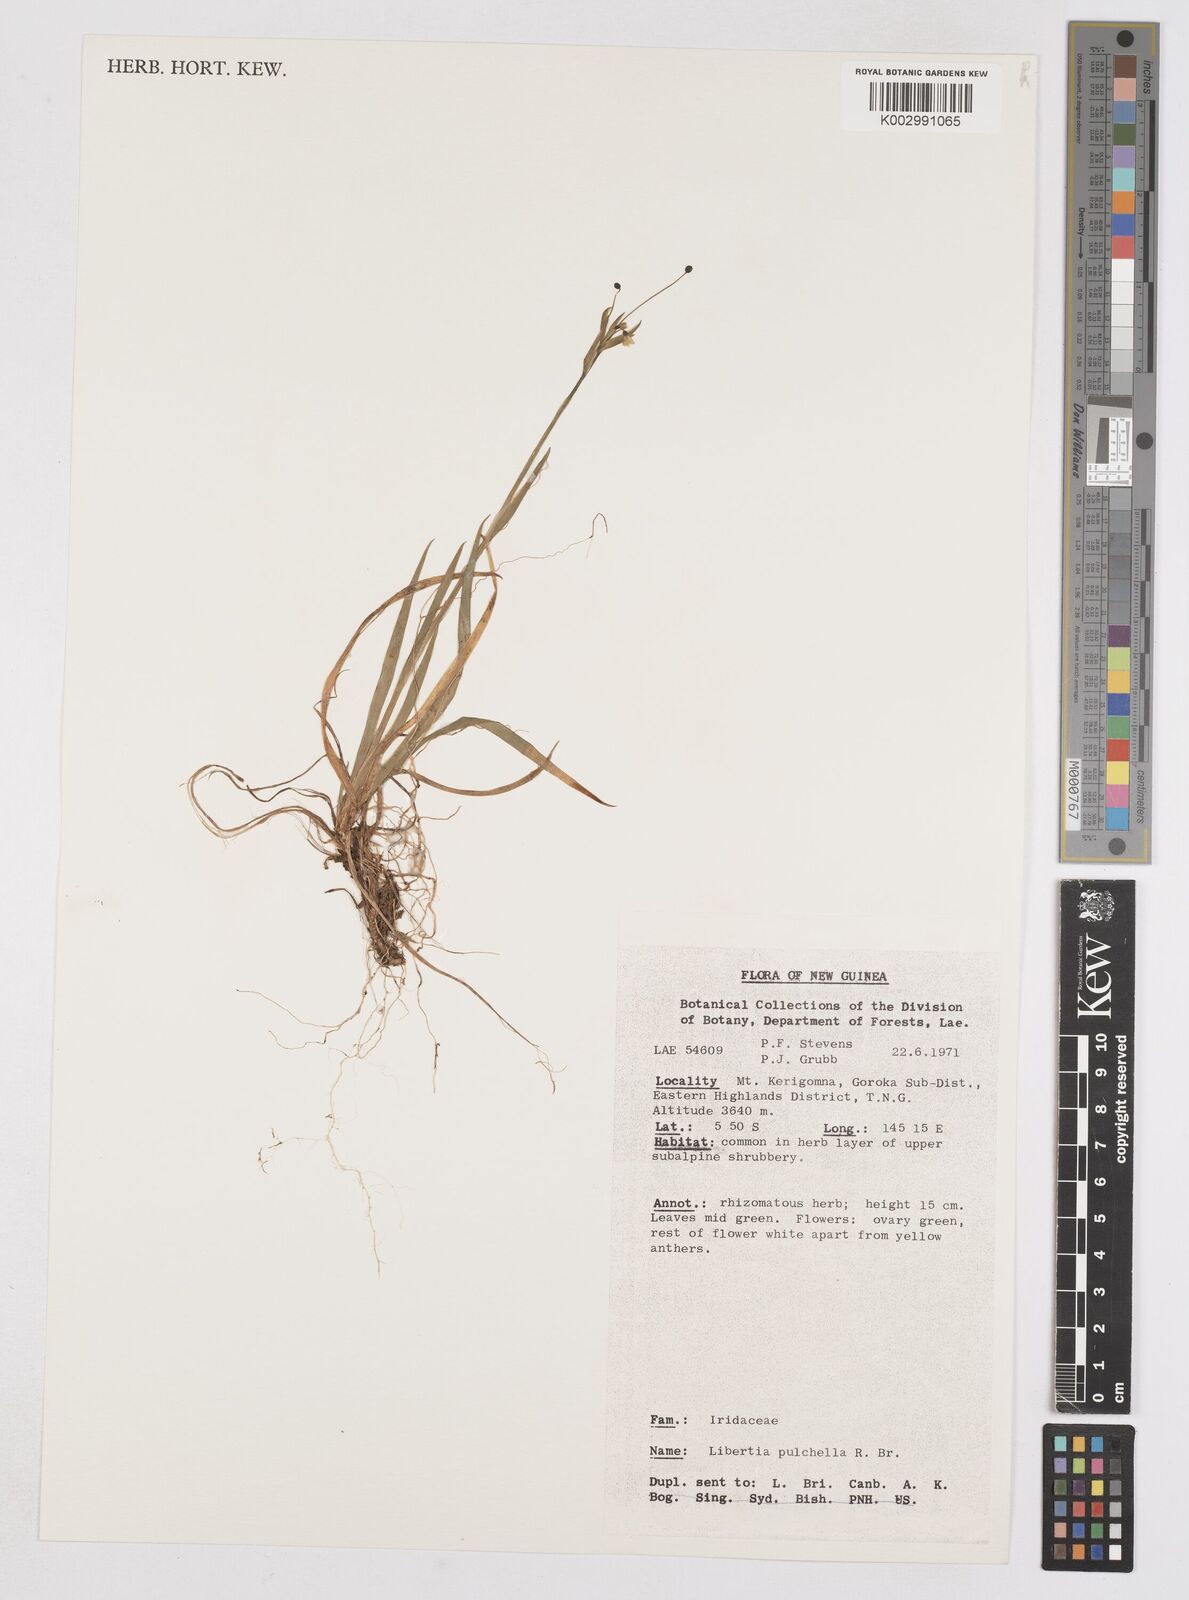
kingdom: Plantae
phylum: Tracheophyta
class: Liliopsida
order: Asparagales
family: Iridaceae
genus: Libertia
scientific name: Libertia pulchella
